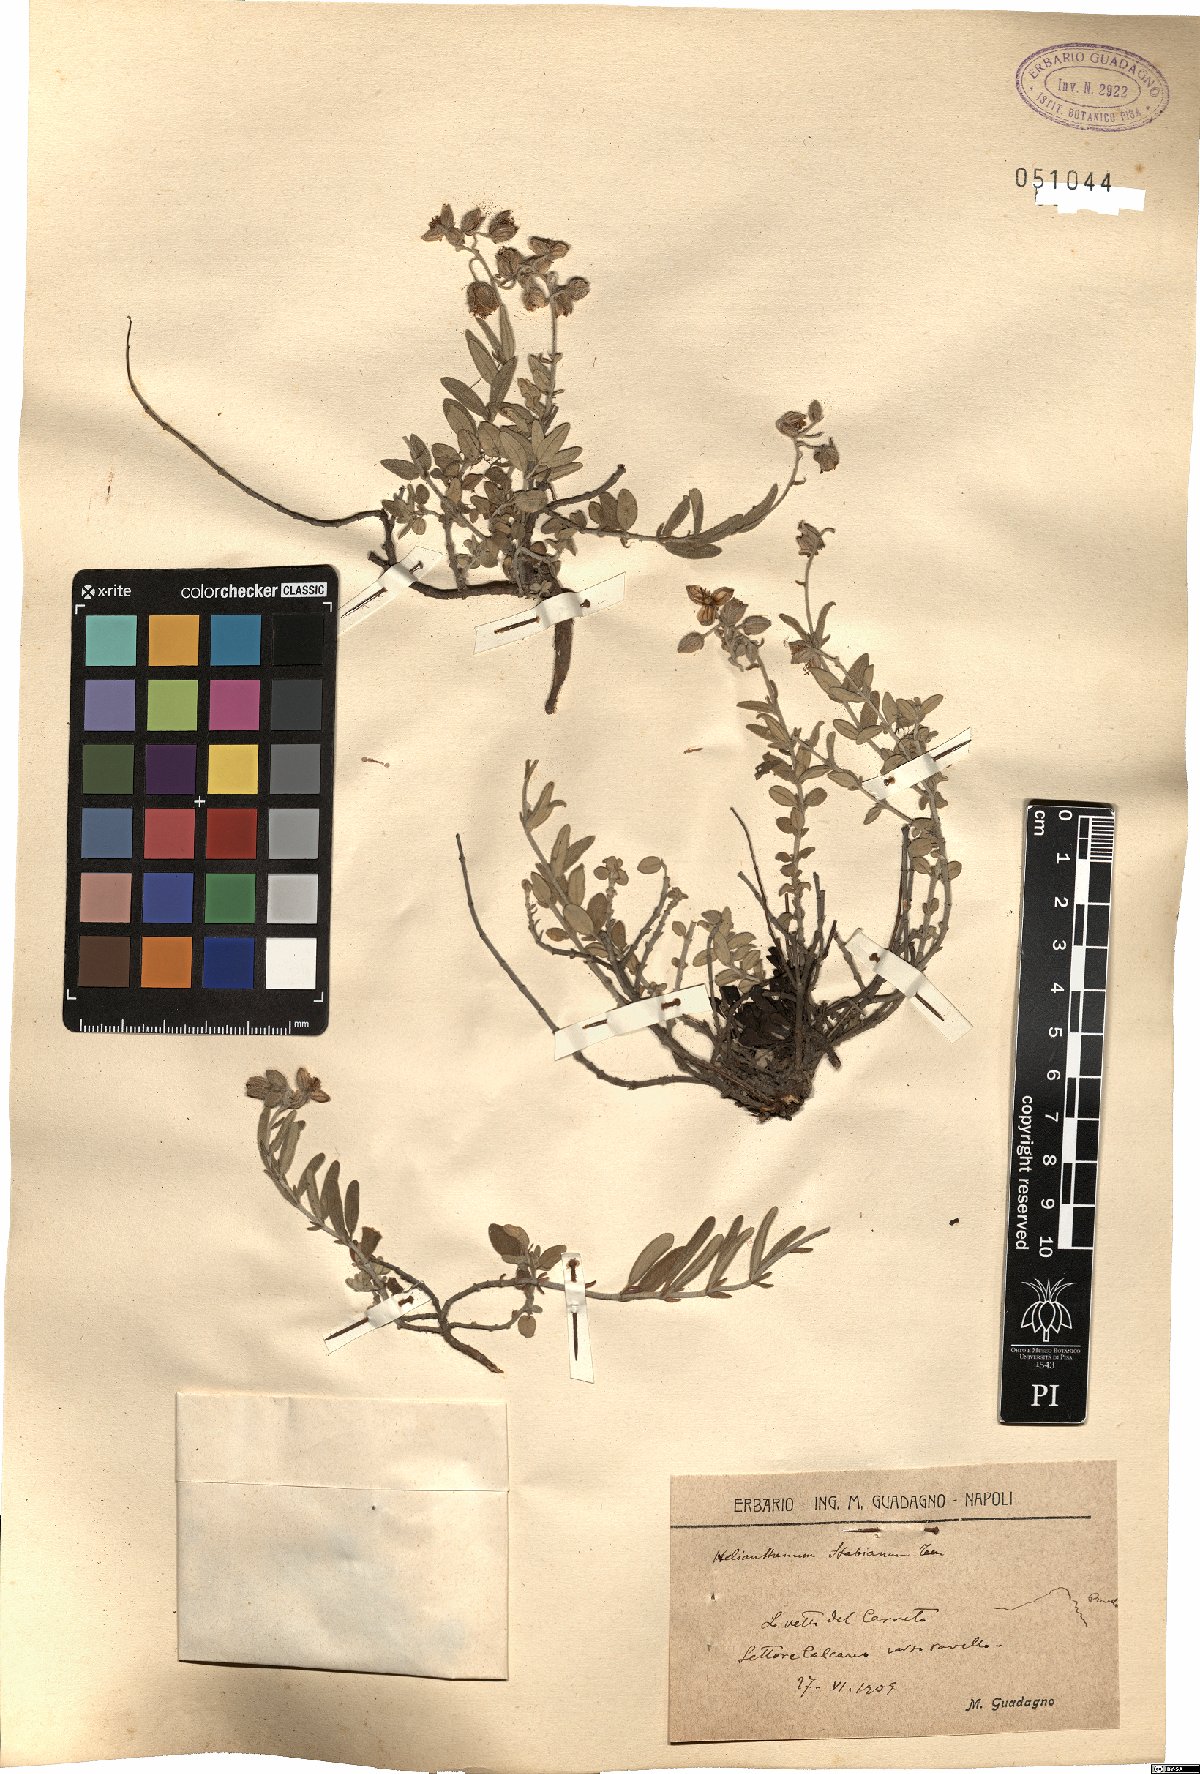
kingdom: Plantae
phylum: Tracheophyta
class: Magnoliopsida
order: Malvales
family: Cistaceae
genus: Helianthemum
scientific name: Helianthemum croceum
